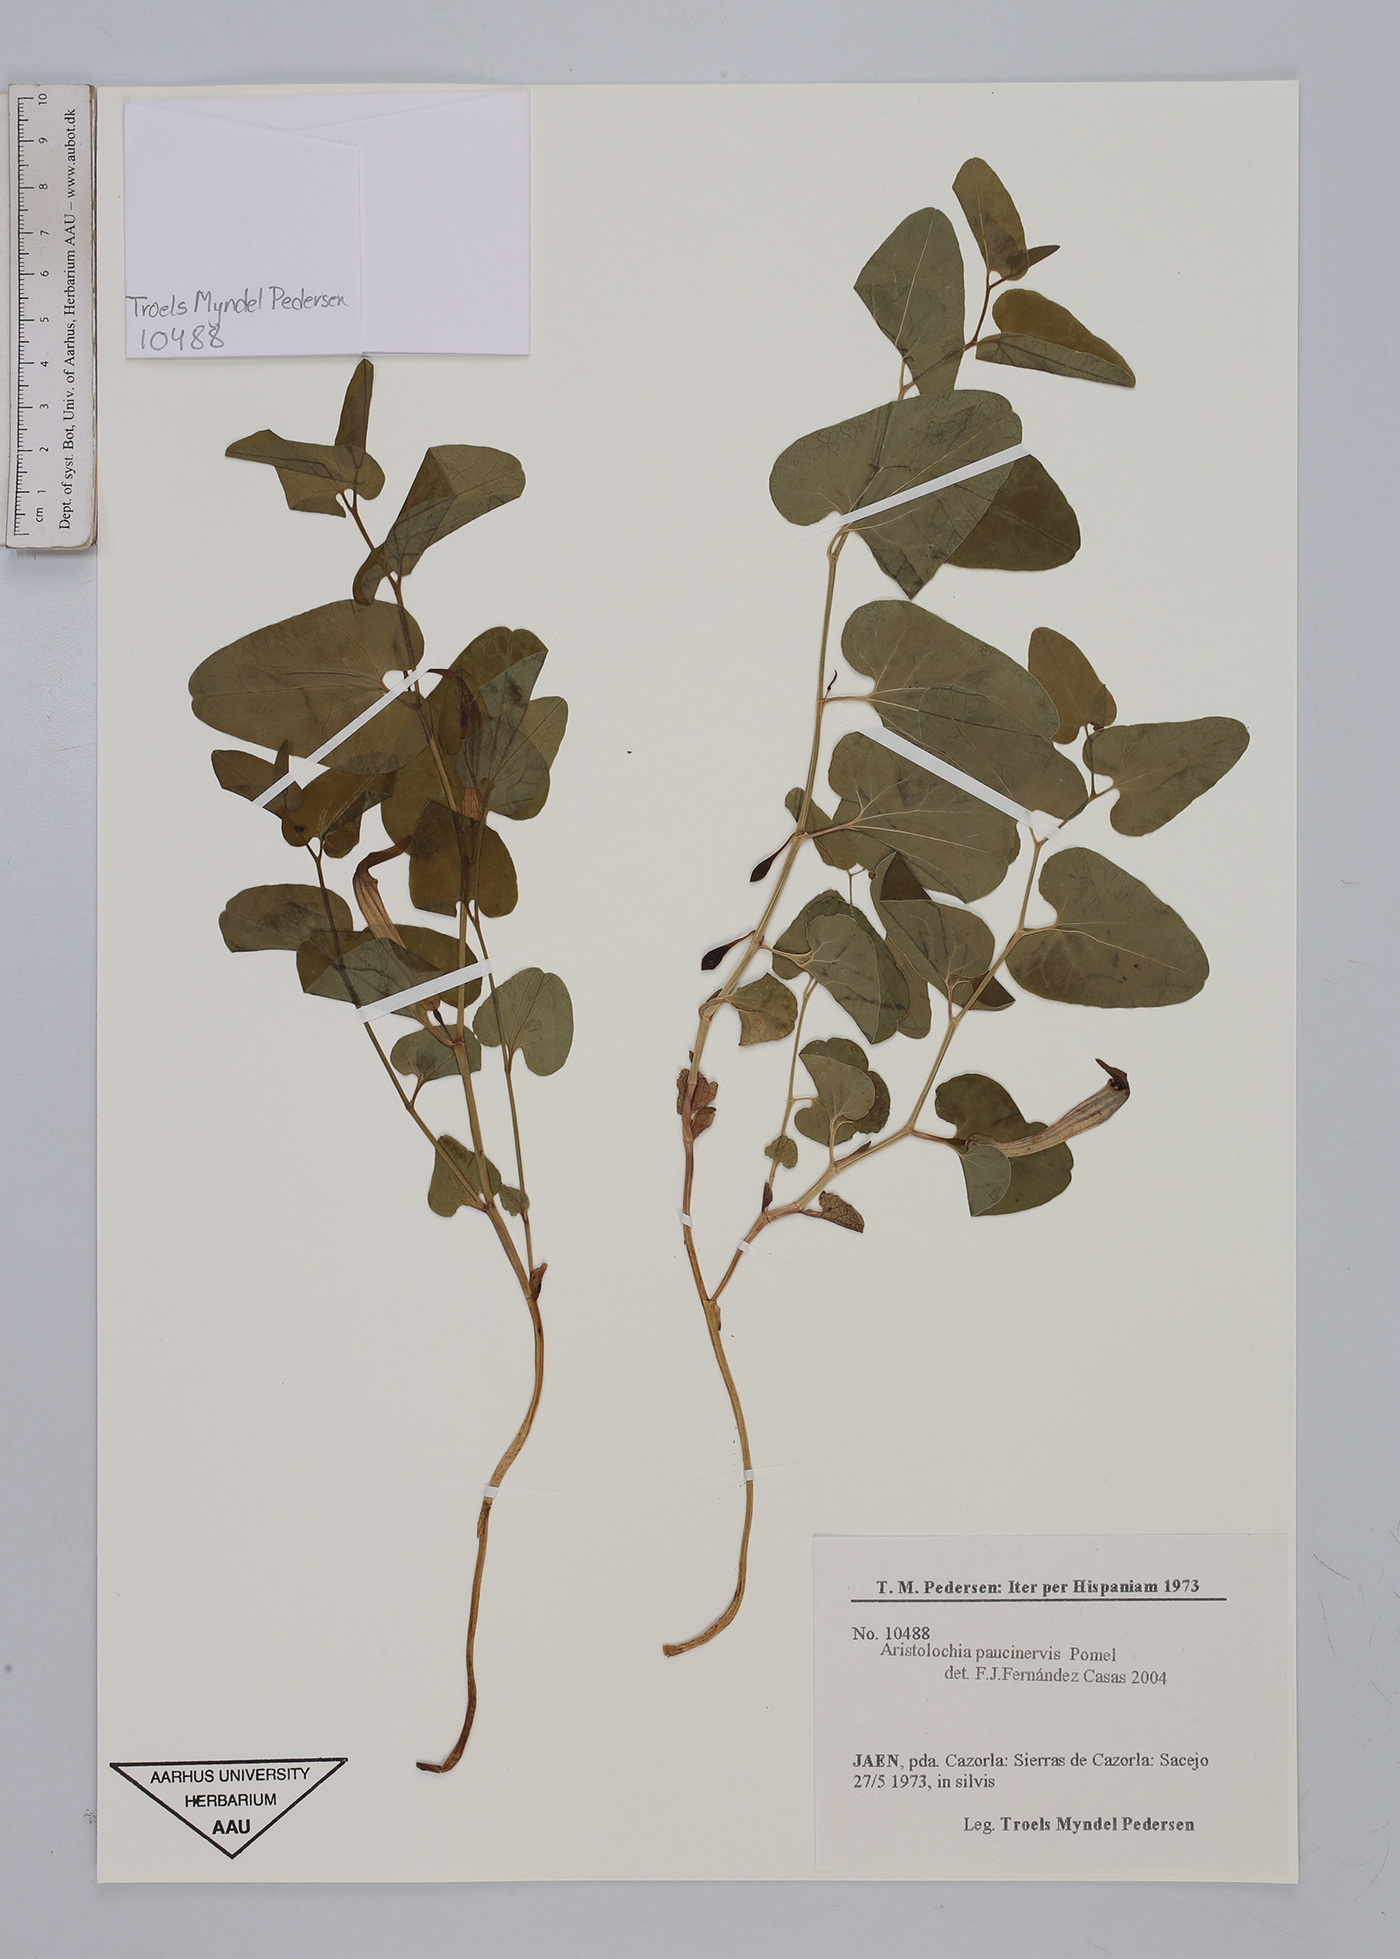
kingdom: Plantae
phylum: Tracheophyta
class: Magnoliopsida
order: Piperales
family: Aristolochiaceae
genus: Aristolochia
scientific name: Aristolochia paucinervis
